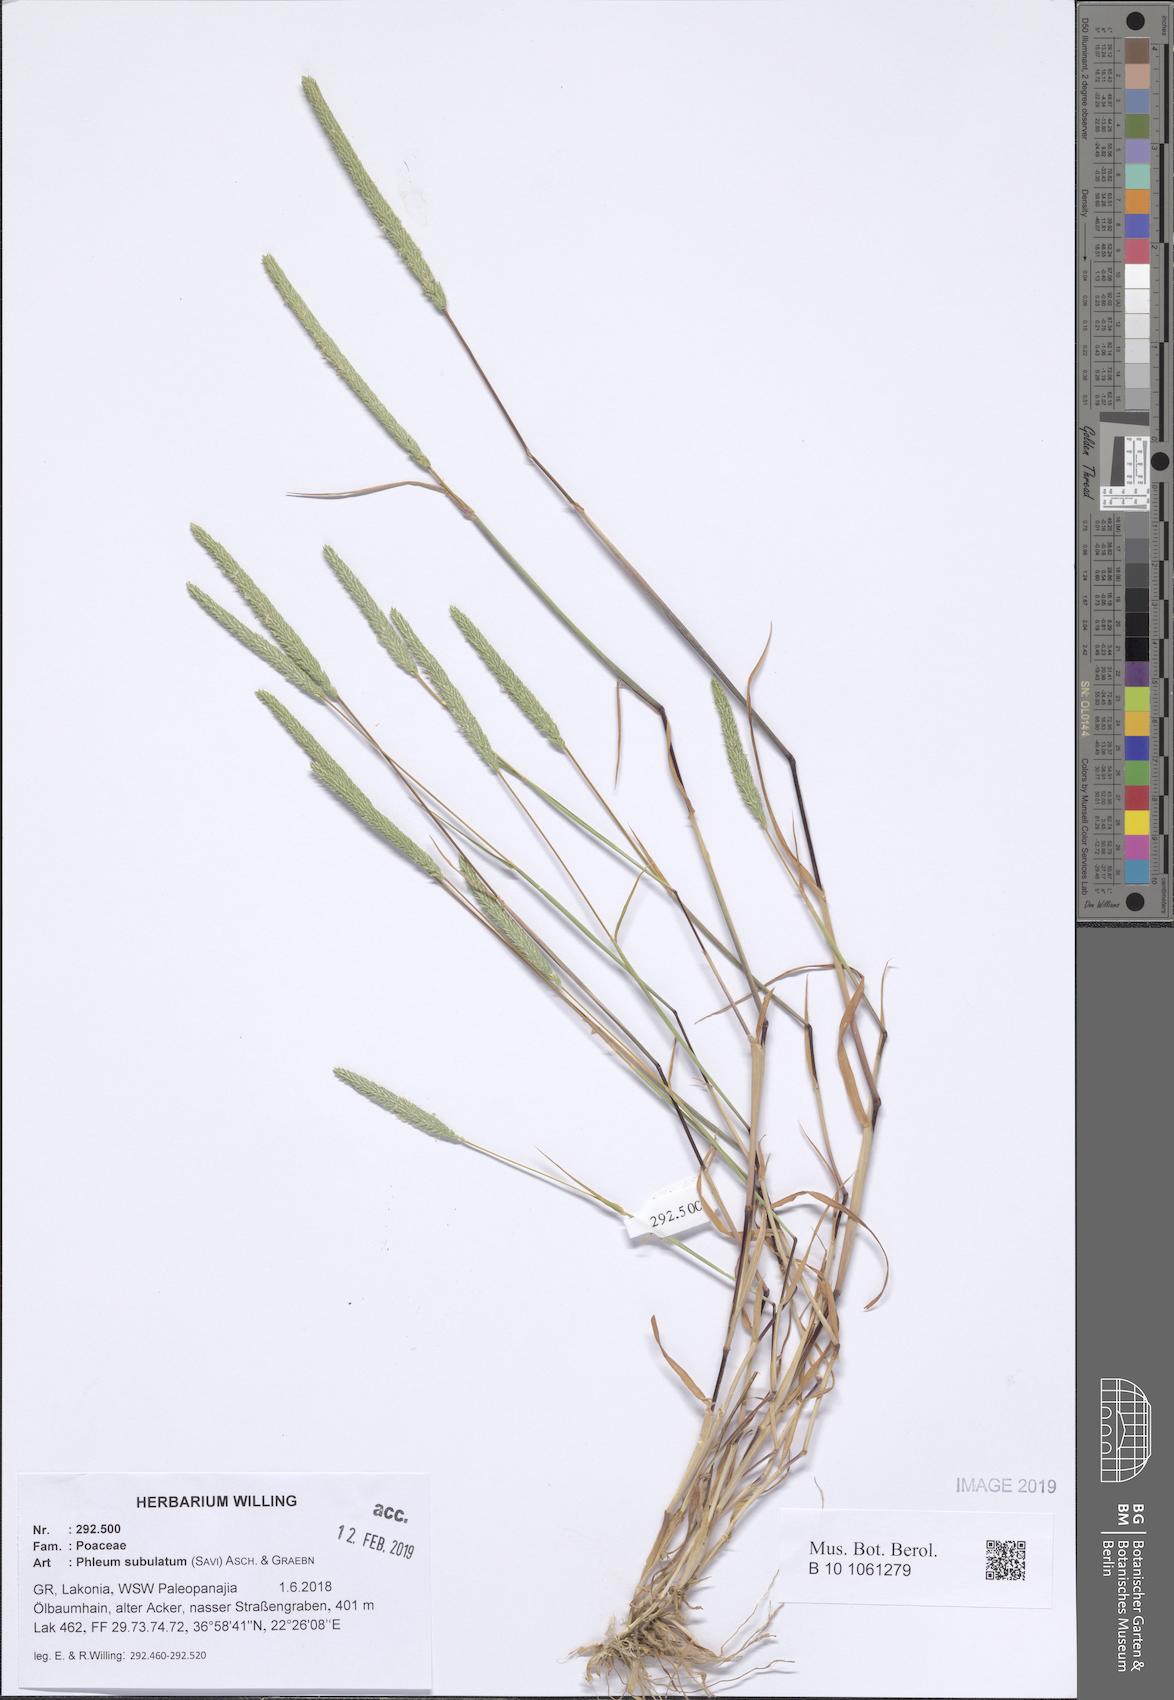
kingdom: Plantae
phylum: Tracheophyta
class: Liliopsida
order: Poales
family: Poaceae
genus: Phleum
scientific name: Phleum subulatum
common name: Italian timothy
